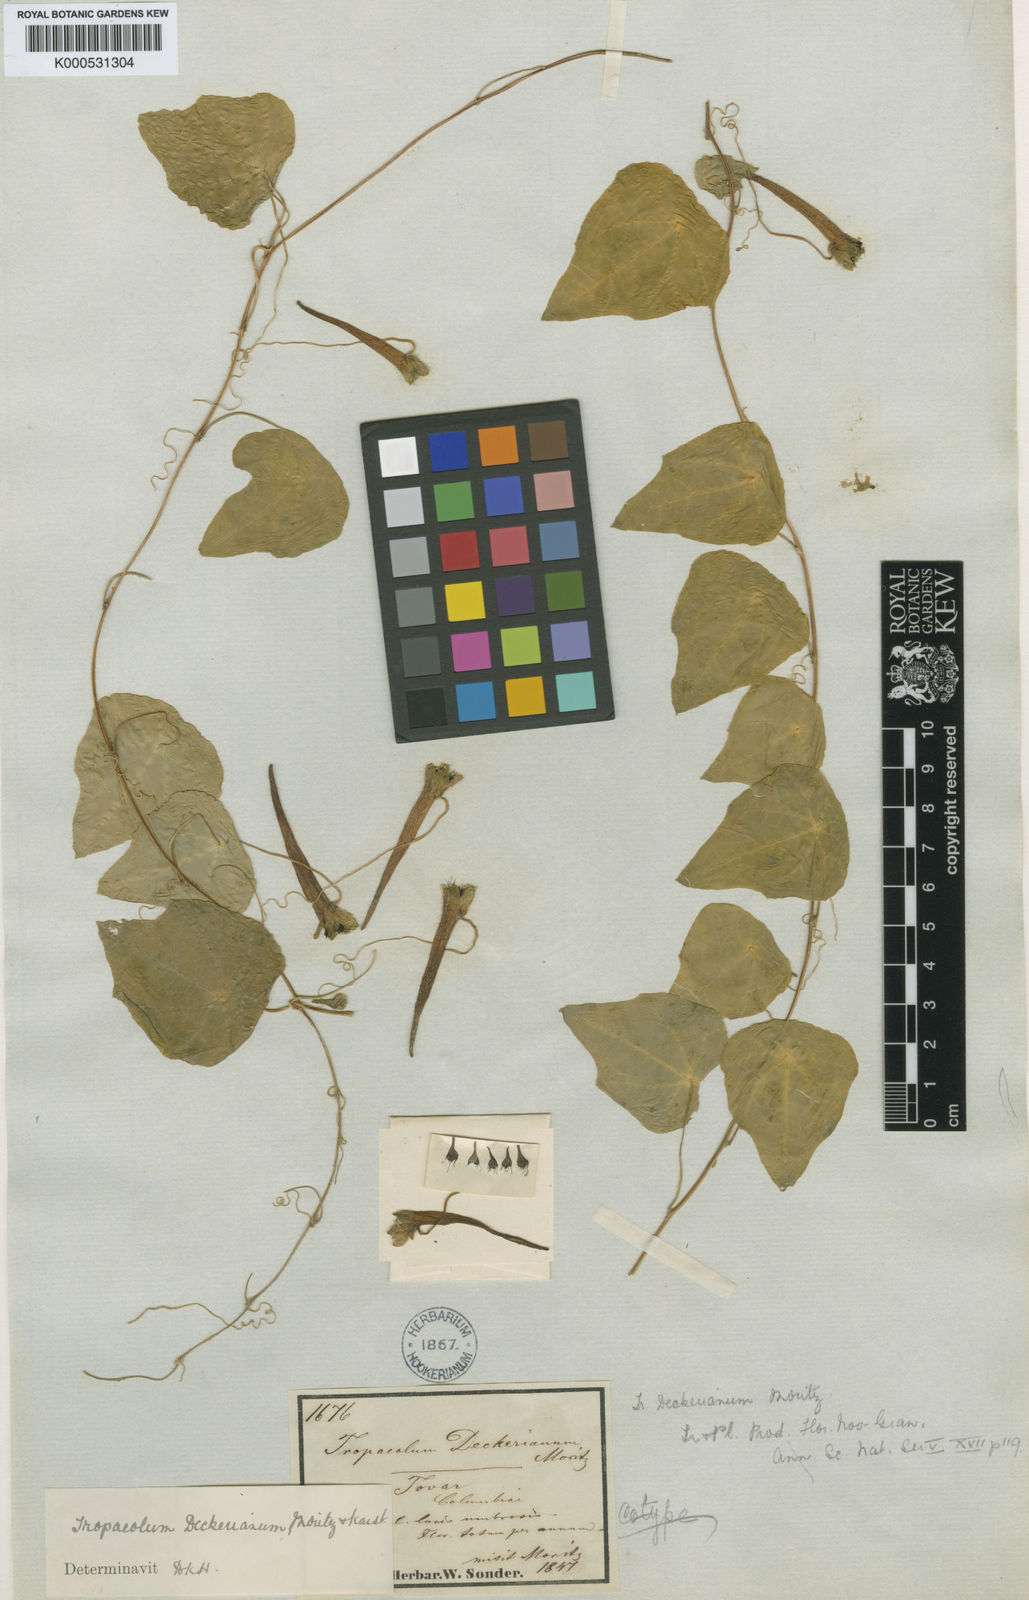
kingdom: Plantae
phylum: Tracheophyta
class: Magnoliopsida
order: Brassicales
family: Tropaeolaceae
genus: Tropaeolum
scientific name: Tropaeolum deckerianum
